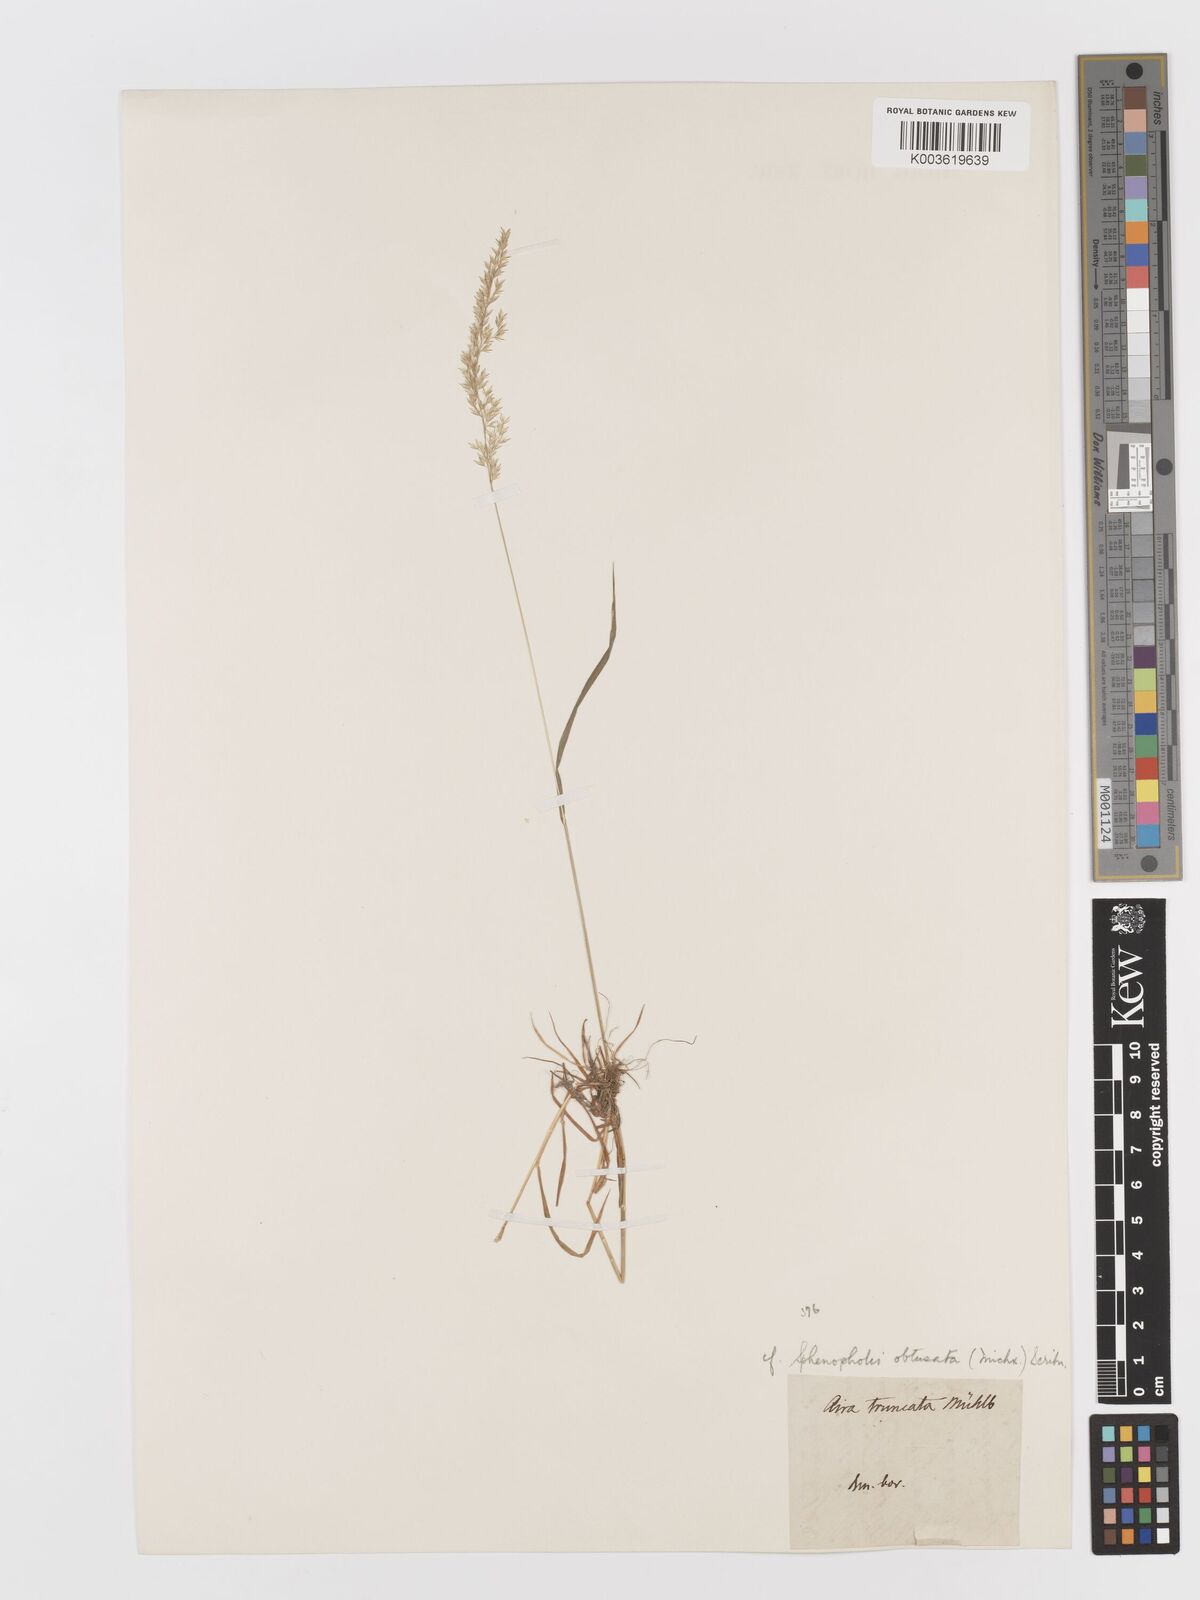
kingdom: Plantae
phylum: Tracheophyta
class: Liliopsida
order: Poales
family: Poaceae
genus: Sphenopholis
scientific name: Sphenopholis obtusata
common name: Prairie grass
